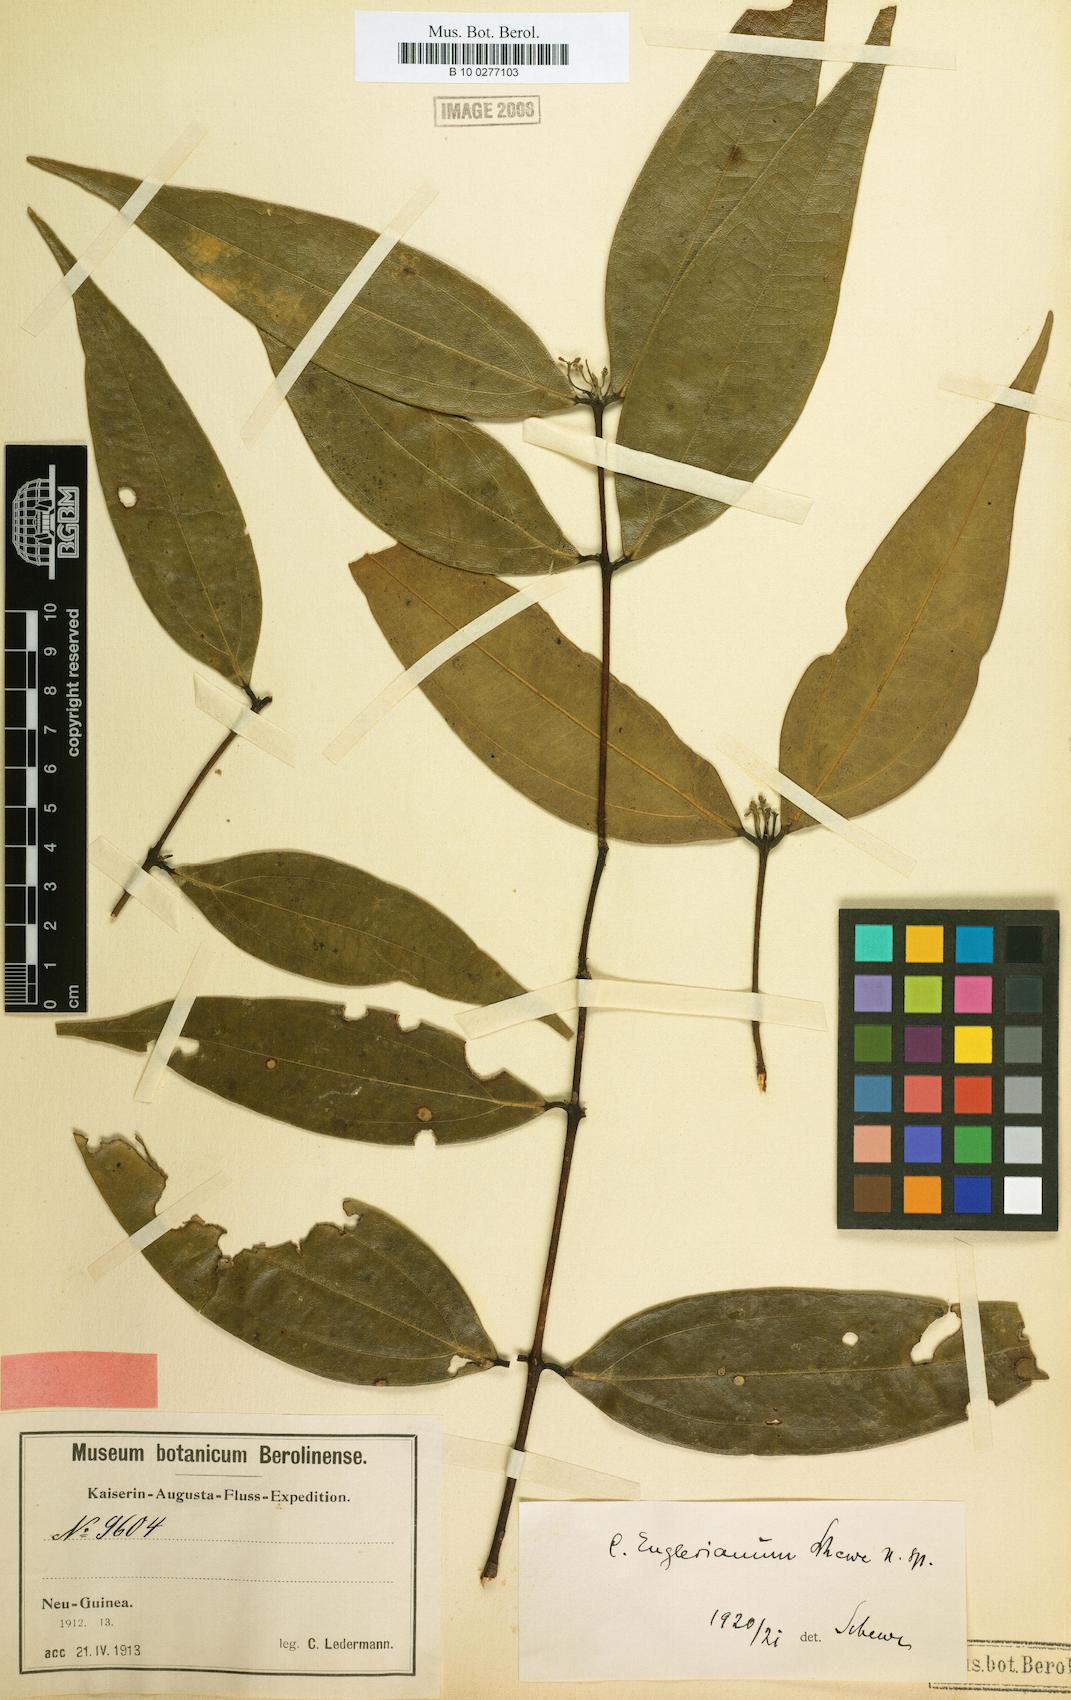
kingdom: Plantae
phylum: Tracheophyta
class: Magnoliopsida
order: Laurales
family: Lauraceae
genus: Cinnamomum
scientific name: Cinnamomum englerianum
